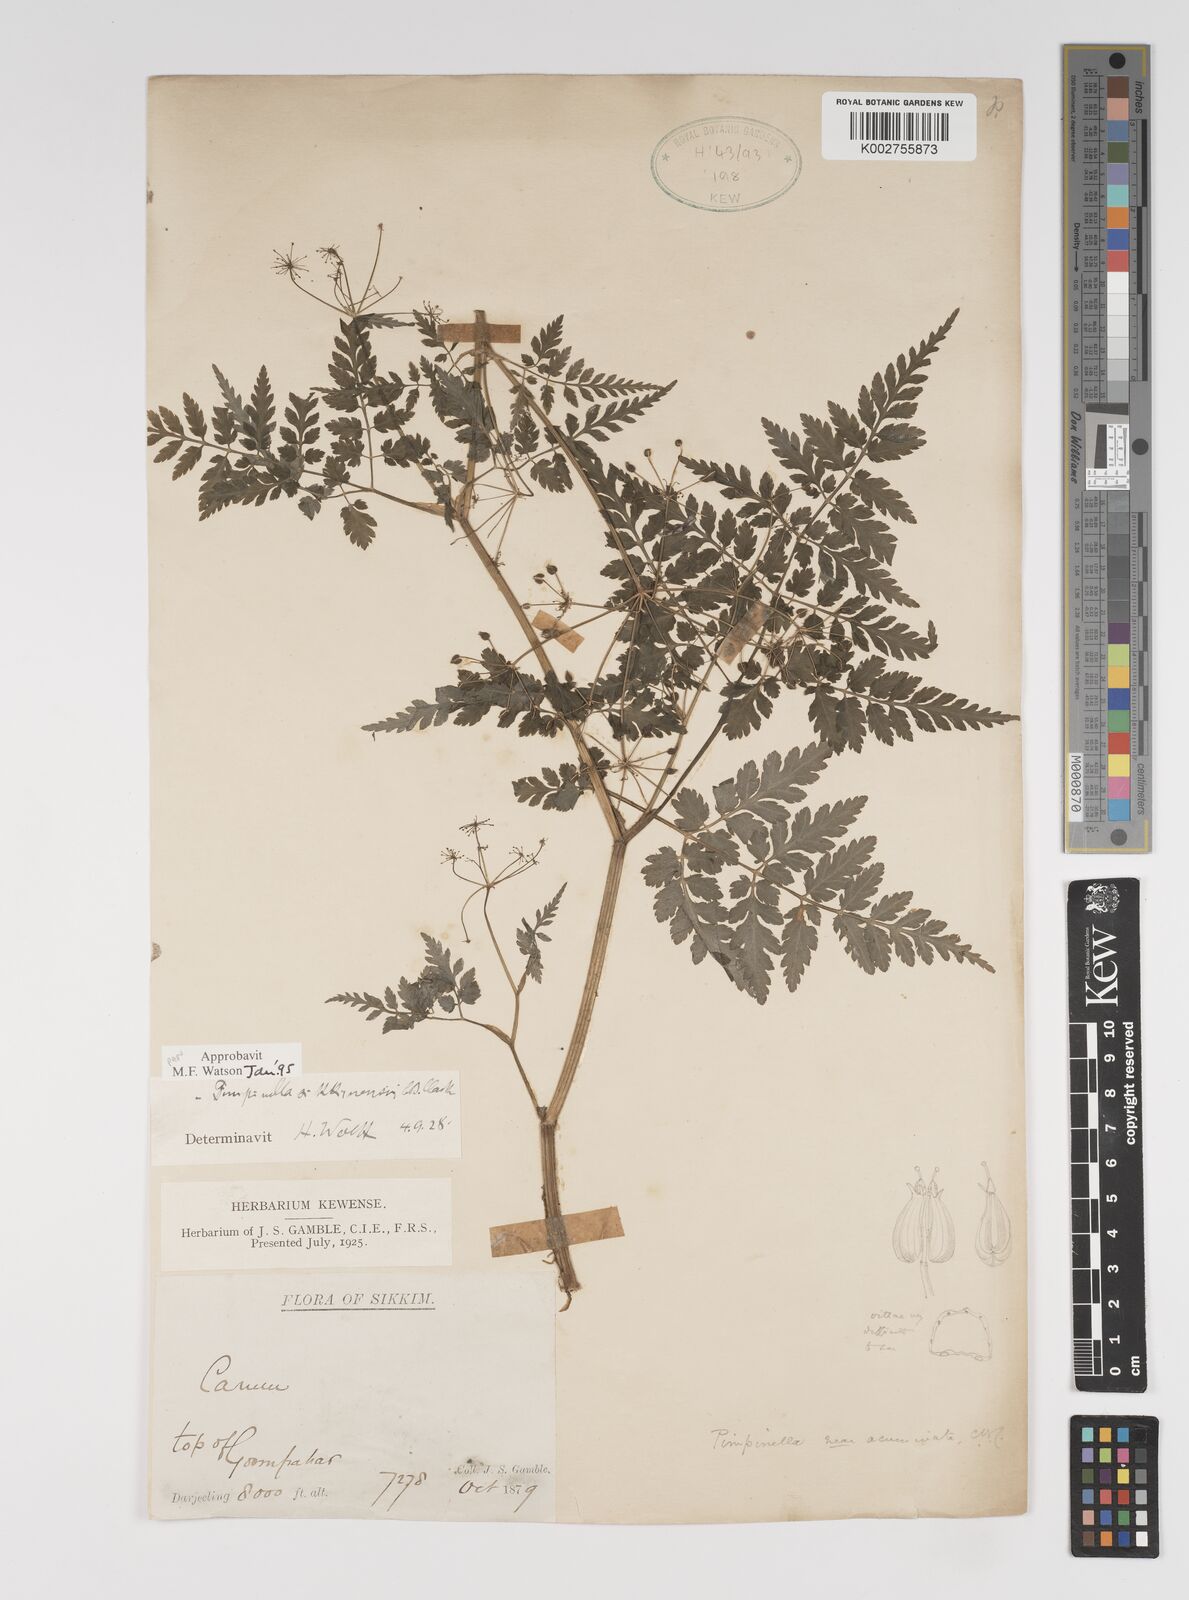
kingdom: Plantae
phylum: Tracheophyta
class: Magnoliopsida
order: Apiales
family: Apiaceae
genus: Pimpinella
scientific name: Pimpinella sikkimensis
